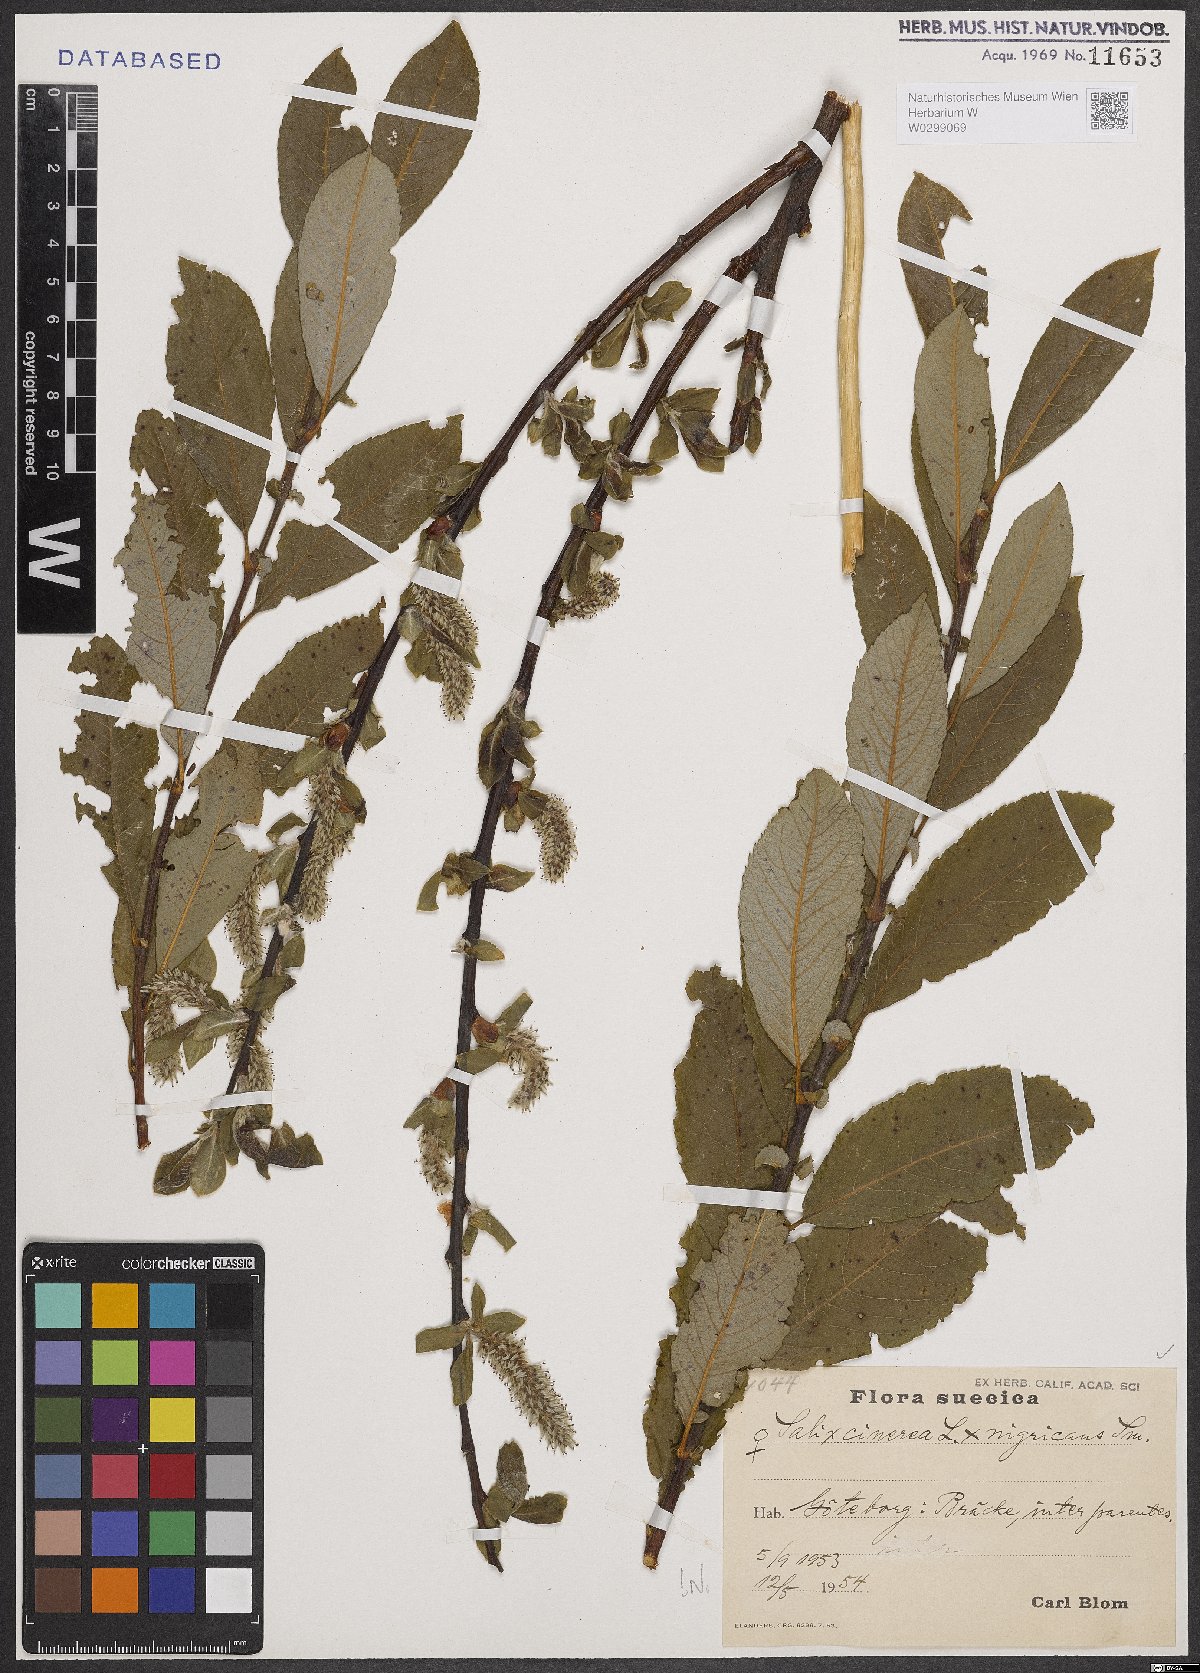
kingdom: Plantae
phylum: Tracheophyta
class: Magnoliopsida
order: Malpighiales
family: Salicaceae
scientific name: Salicaceae
